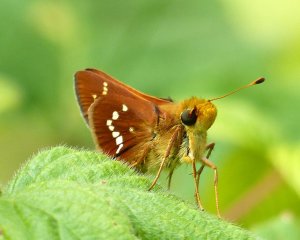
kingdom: Animalia
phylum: Arthropoda
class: Insecta
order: Lepidoptera
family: Hesperiidae
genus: Hesperia
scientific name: Hesperia leonardus
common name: Leonard's Skipper
